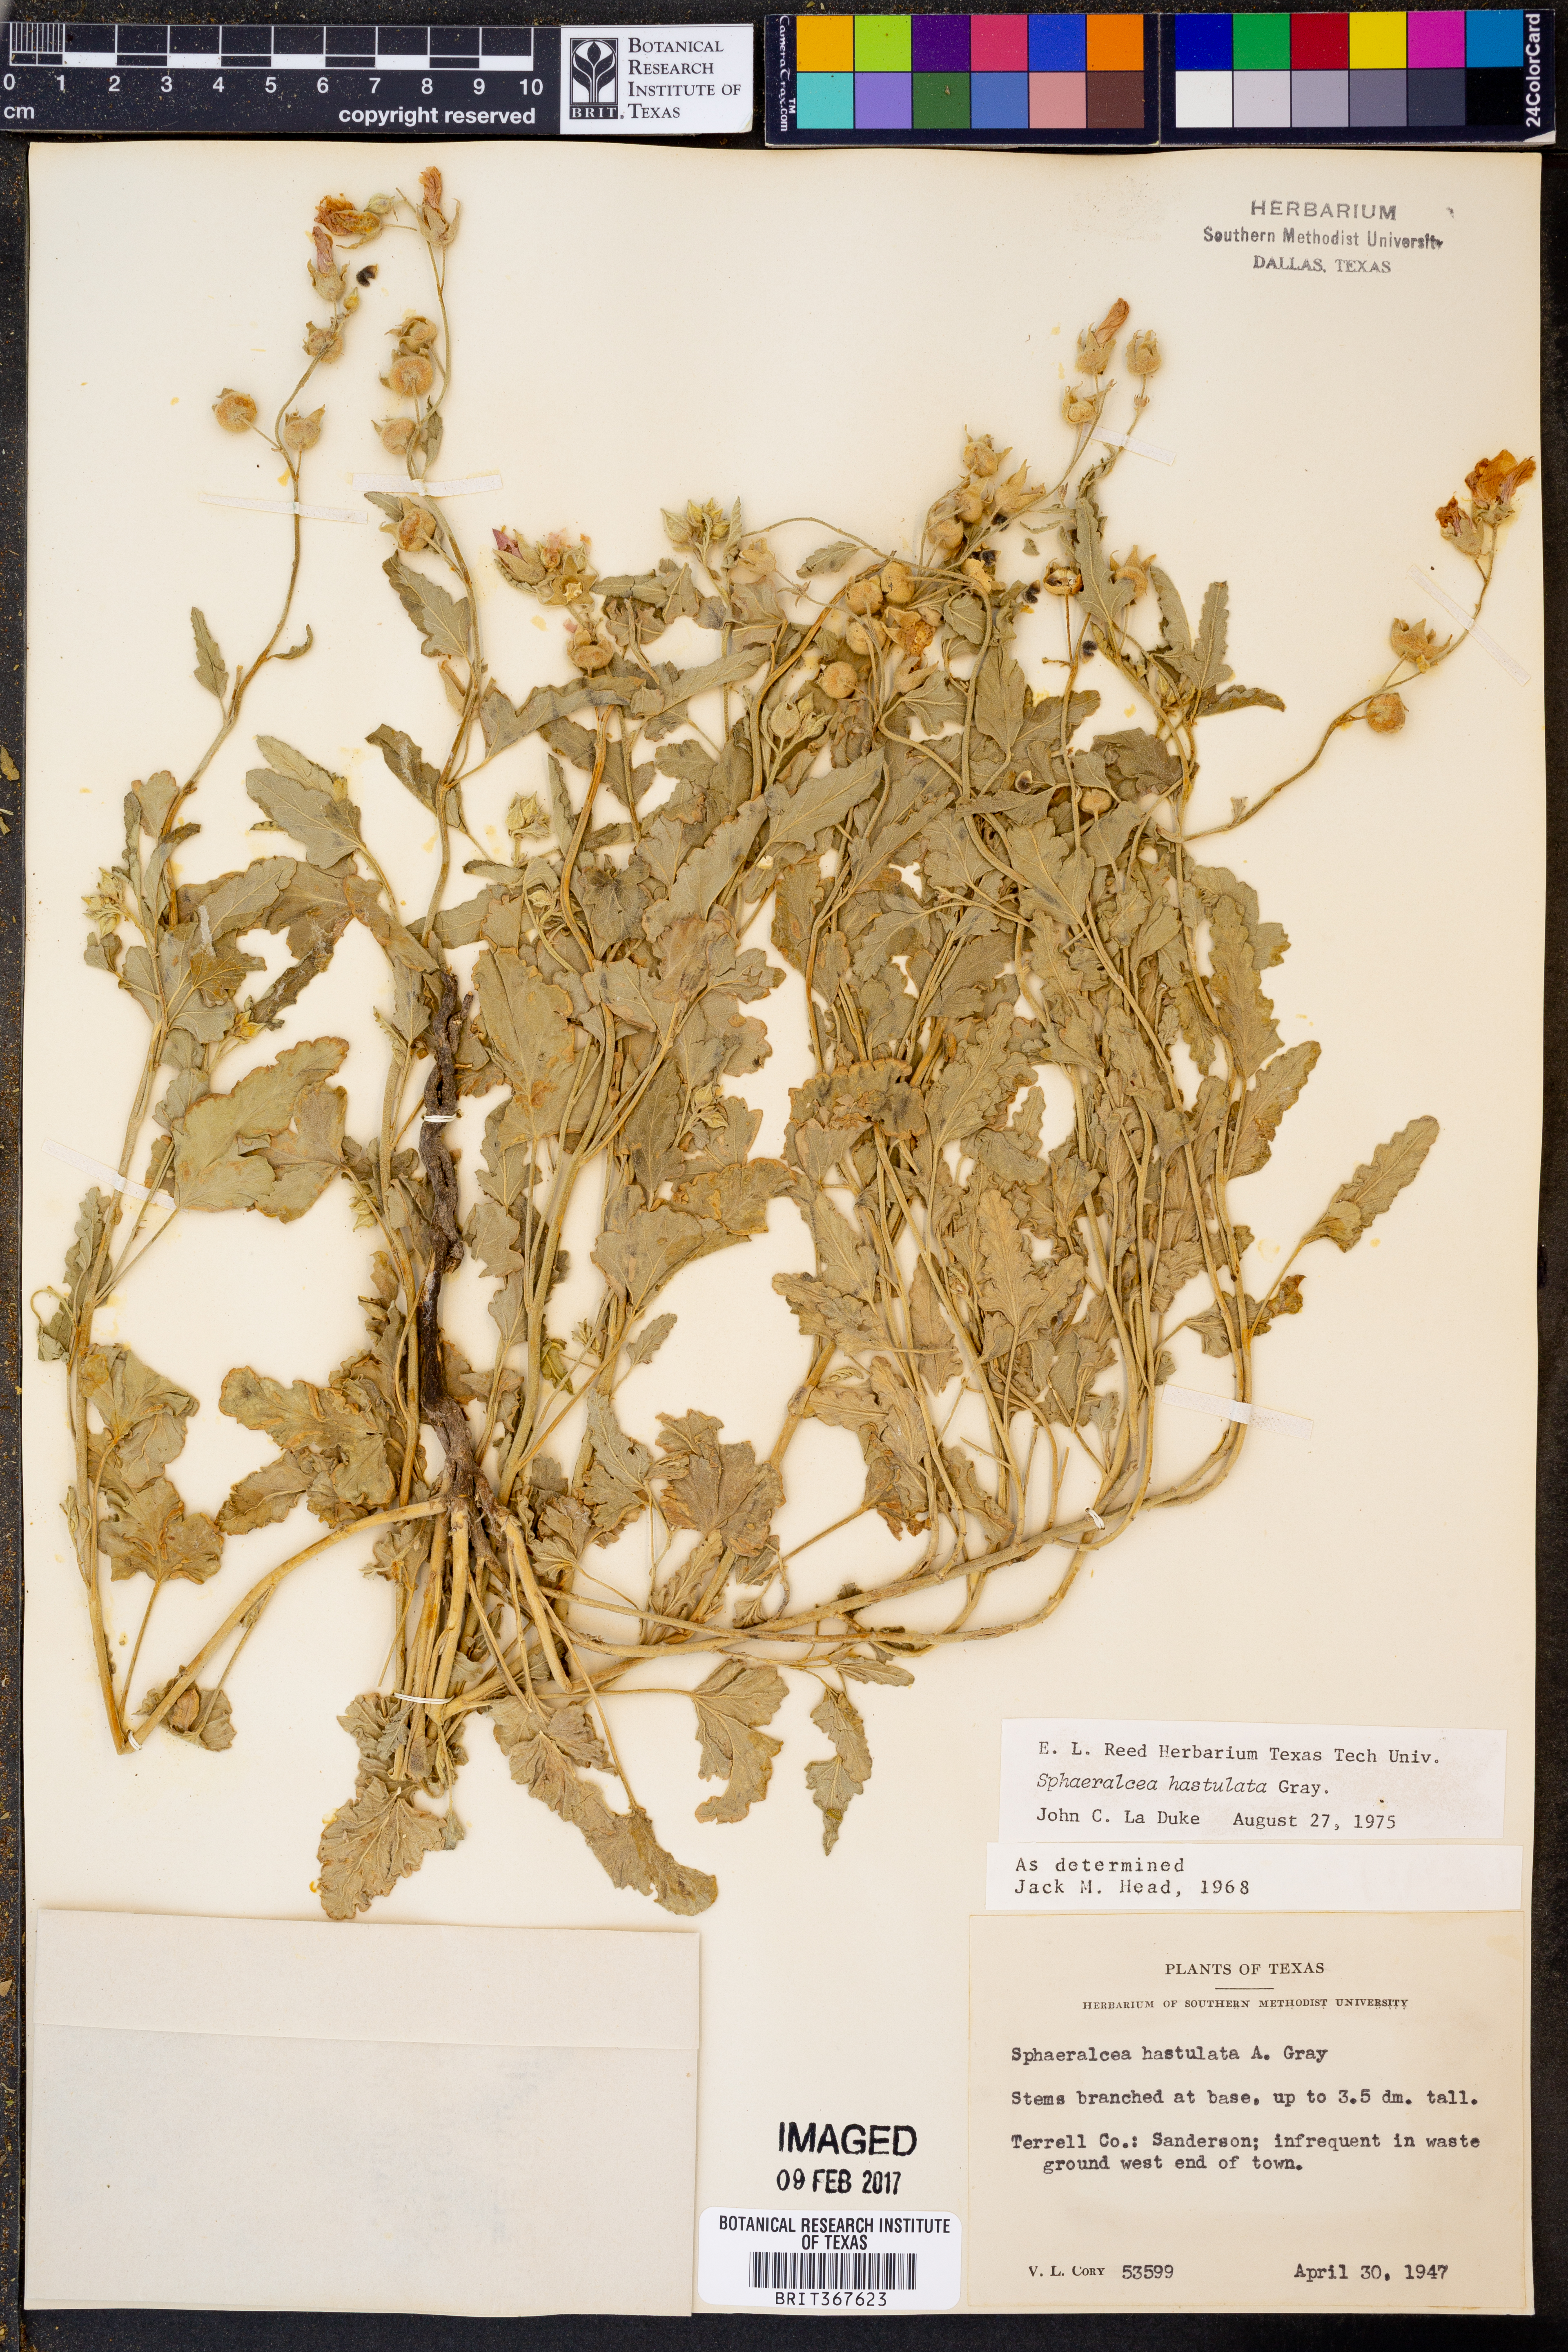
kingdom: Plantae
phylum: Tracheophyta
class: Magnoliopsida
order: Malvales
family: Malvaceae
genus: Sphaeralcea
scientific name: Sphaeralcea hastulata
